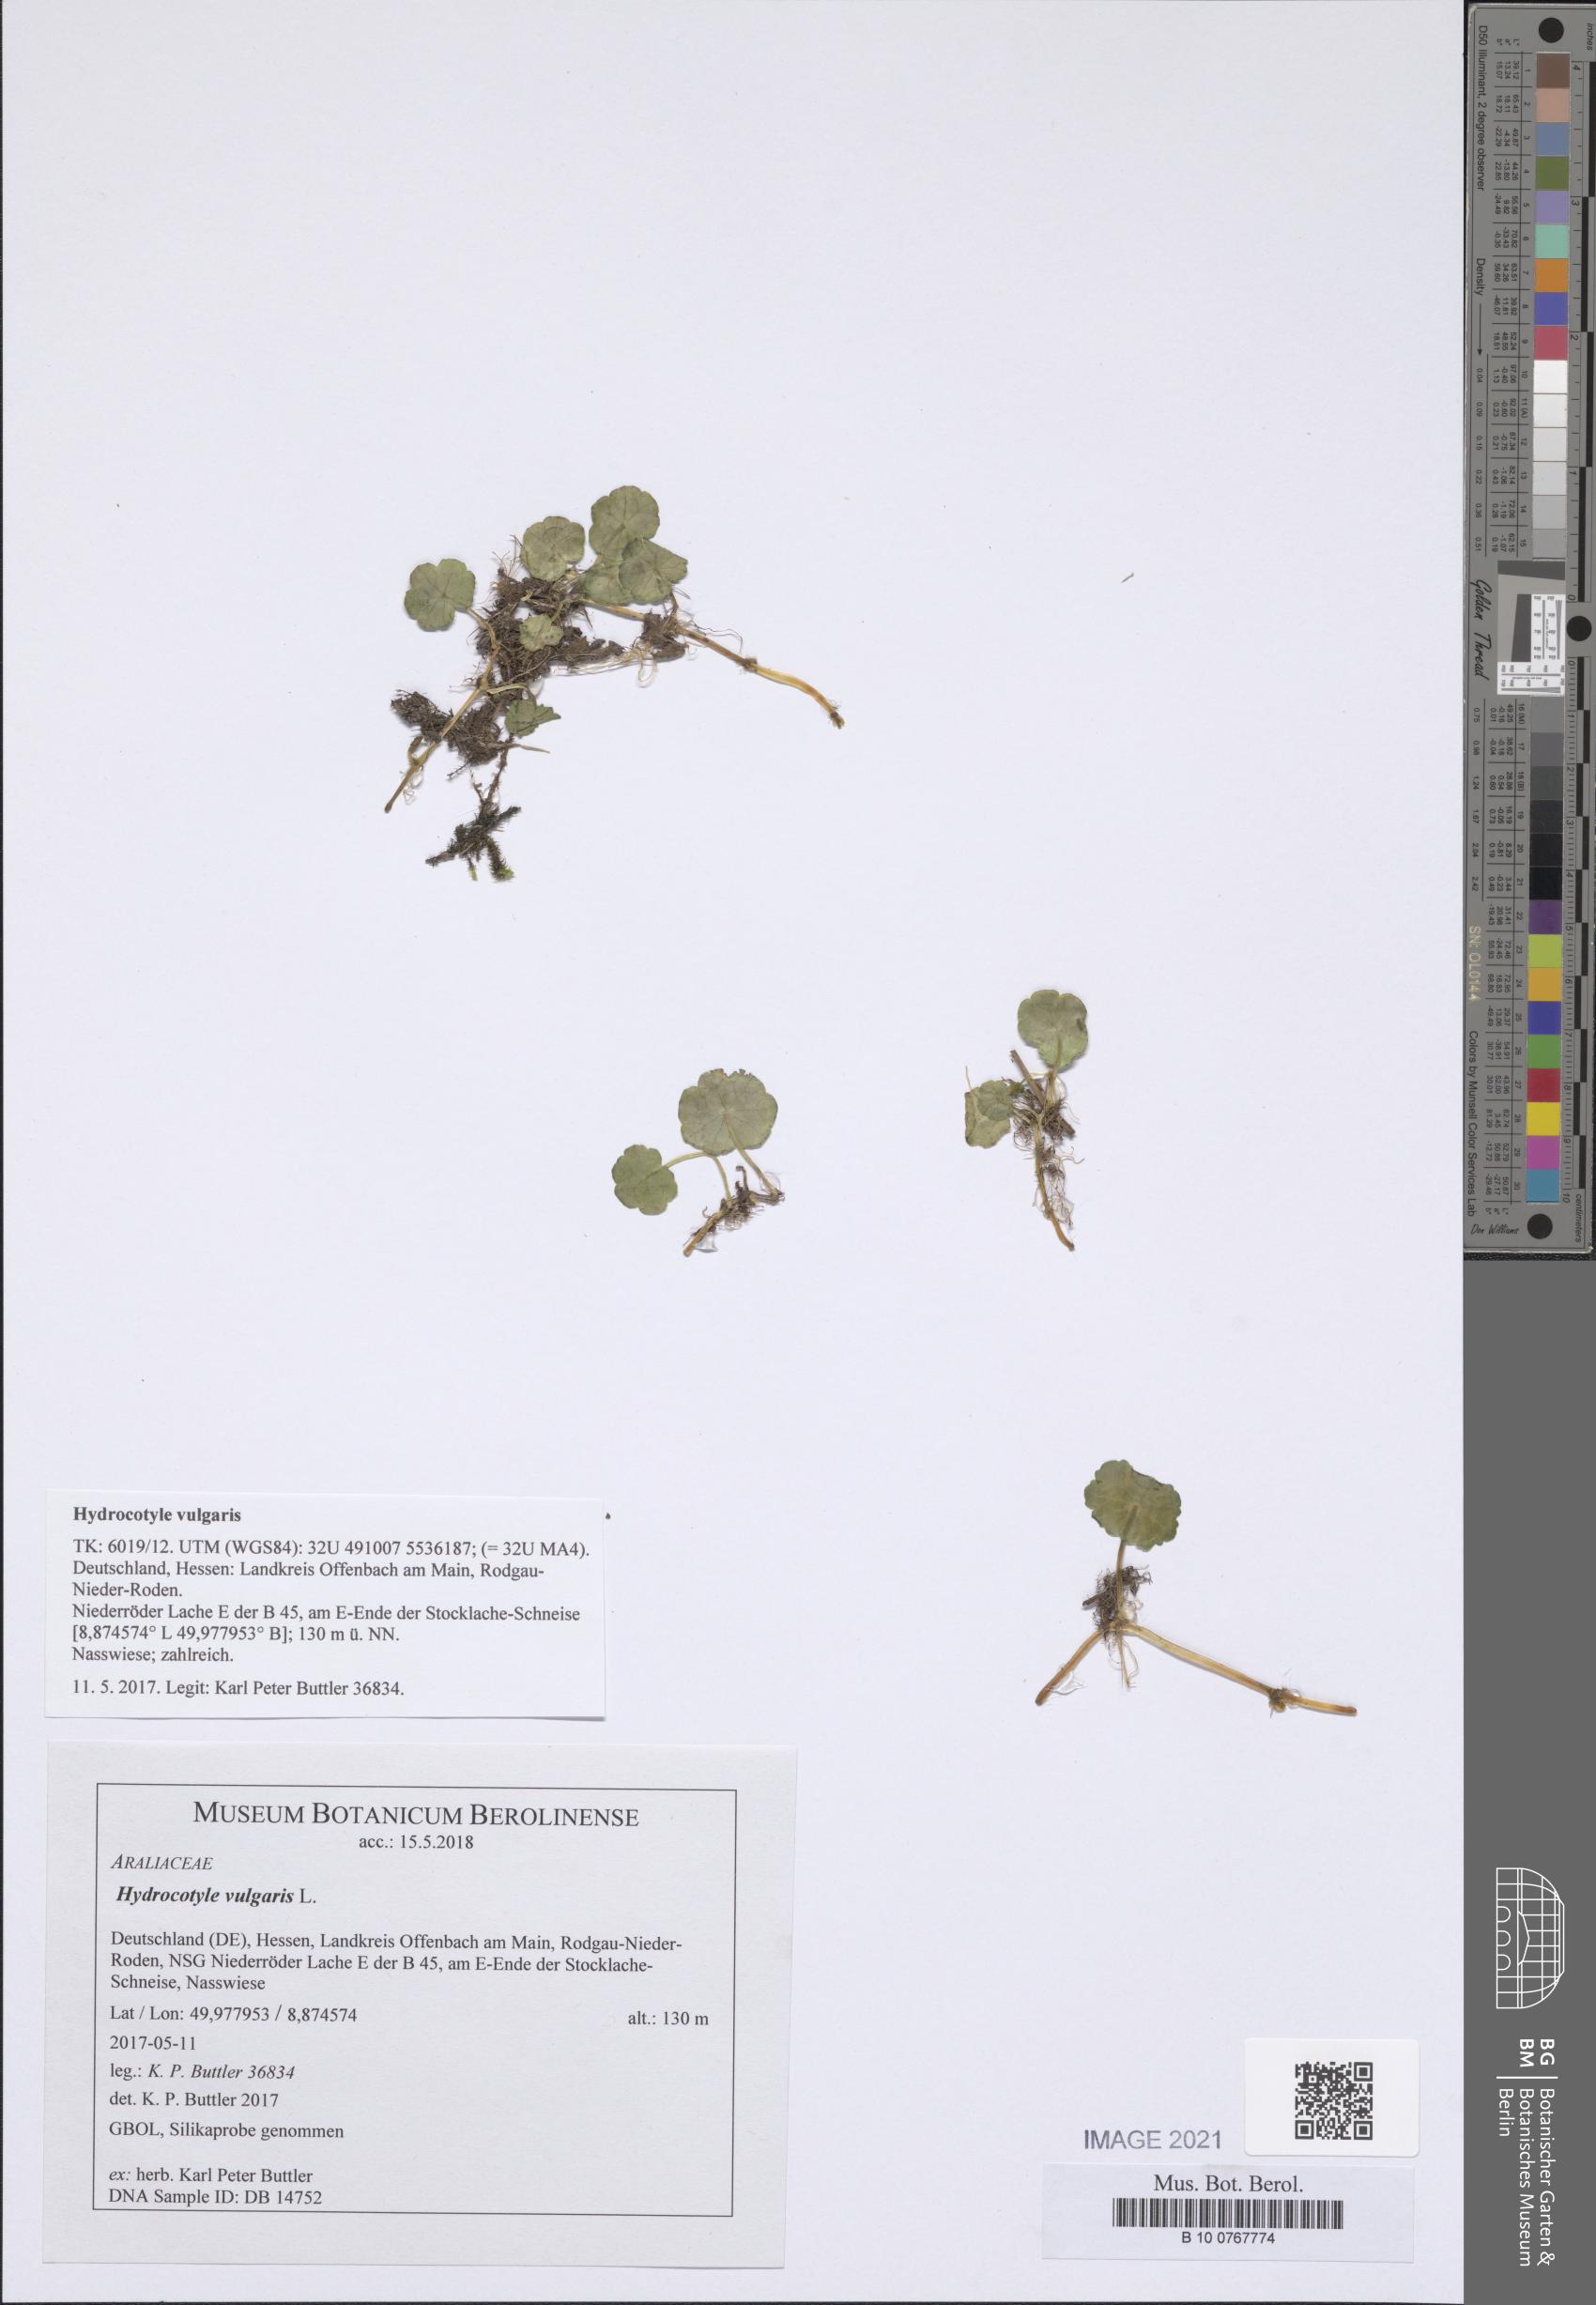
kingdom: Plantae
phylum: Tracheophyta
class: Magnoliopsida
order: Apiales
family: Araliaceae
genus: Hydrocotyle
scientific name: Hydrocotyle vulgaris
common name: Marsh pennywort
